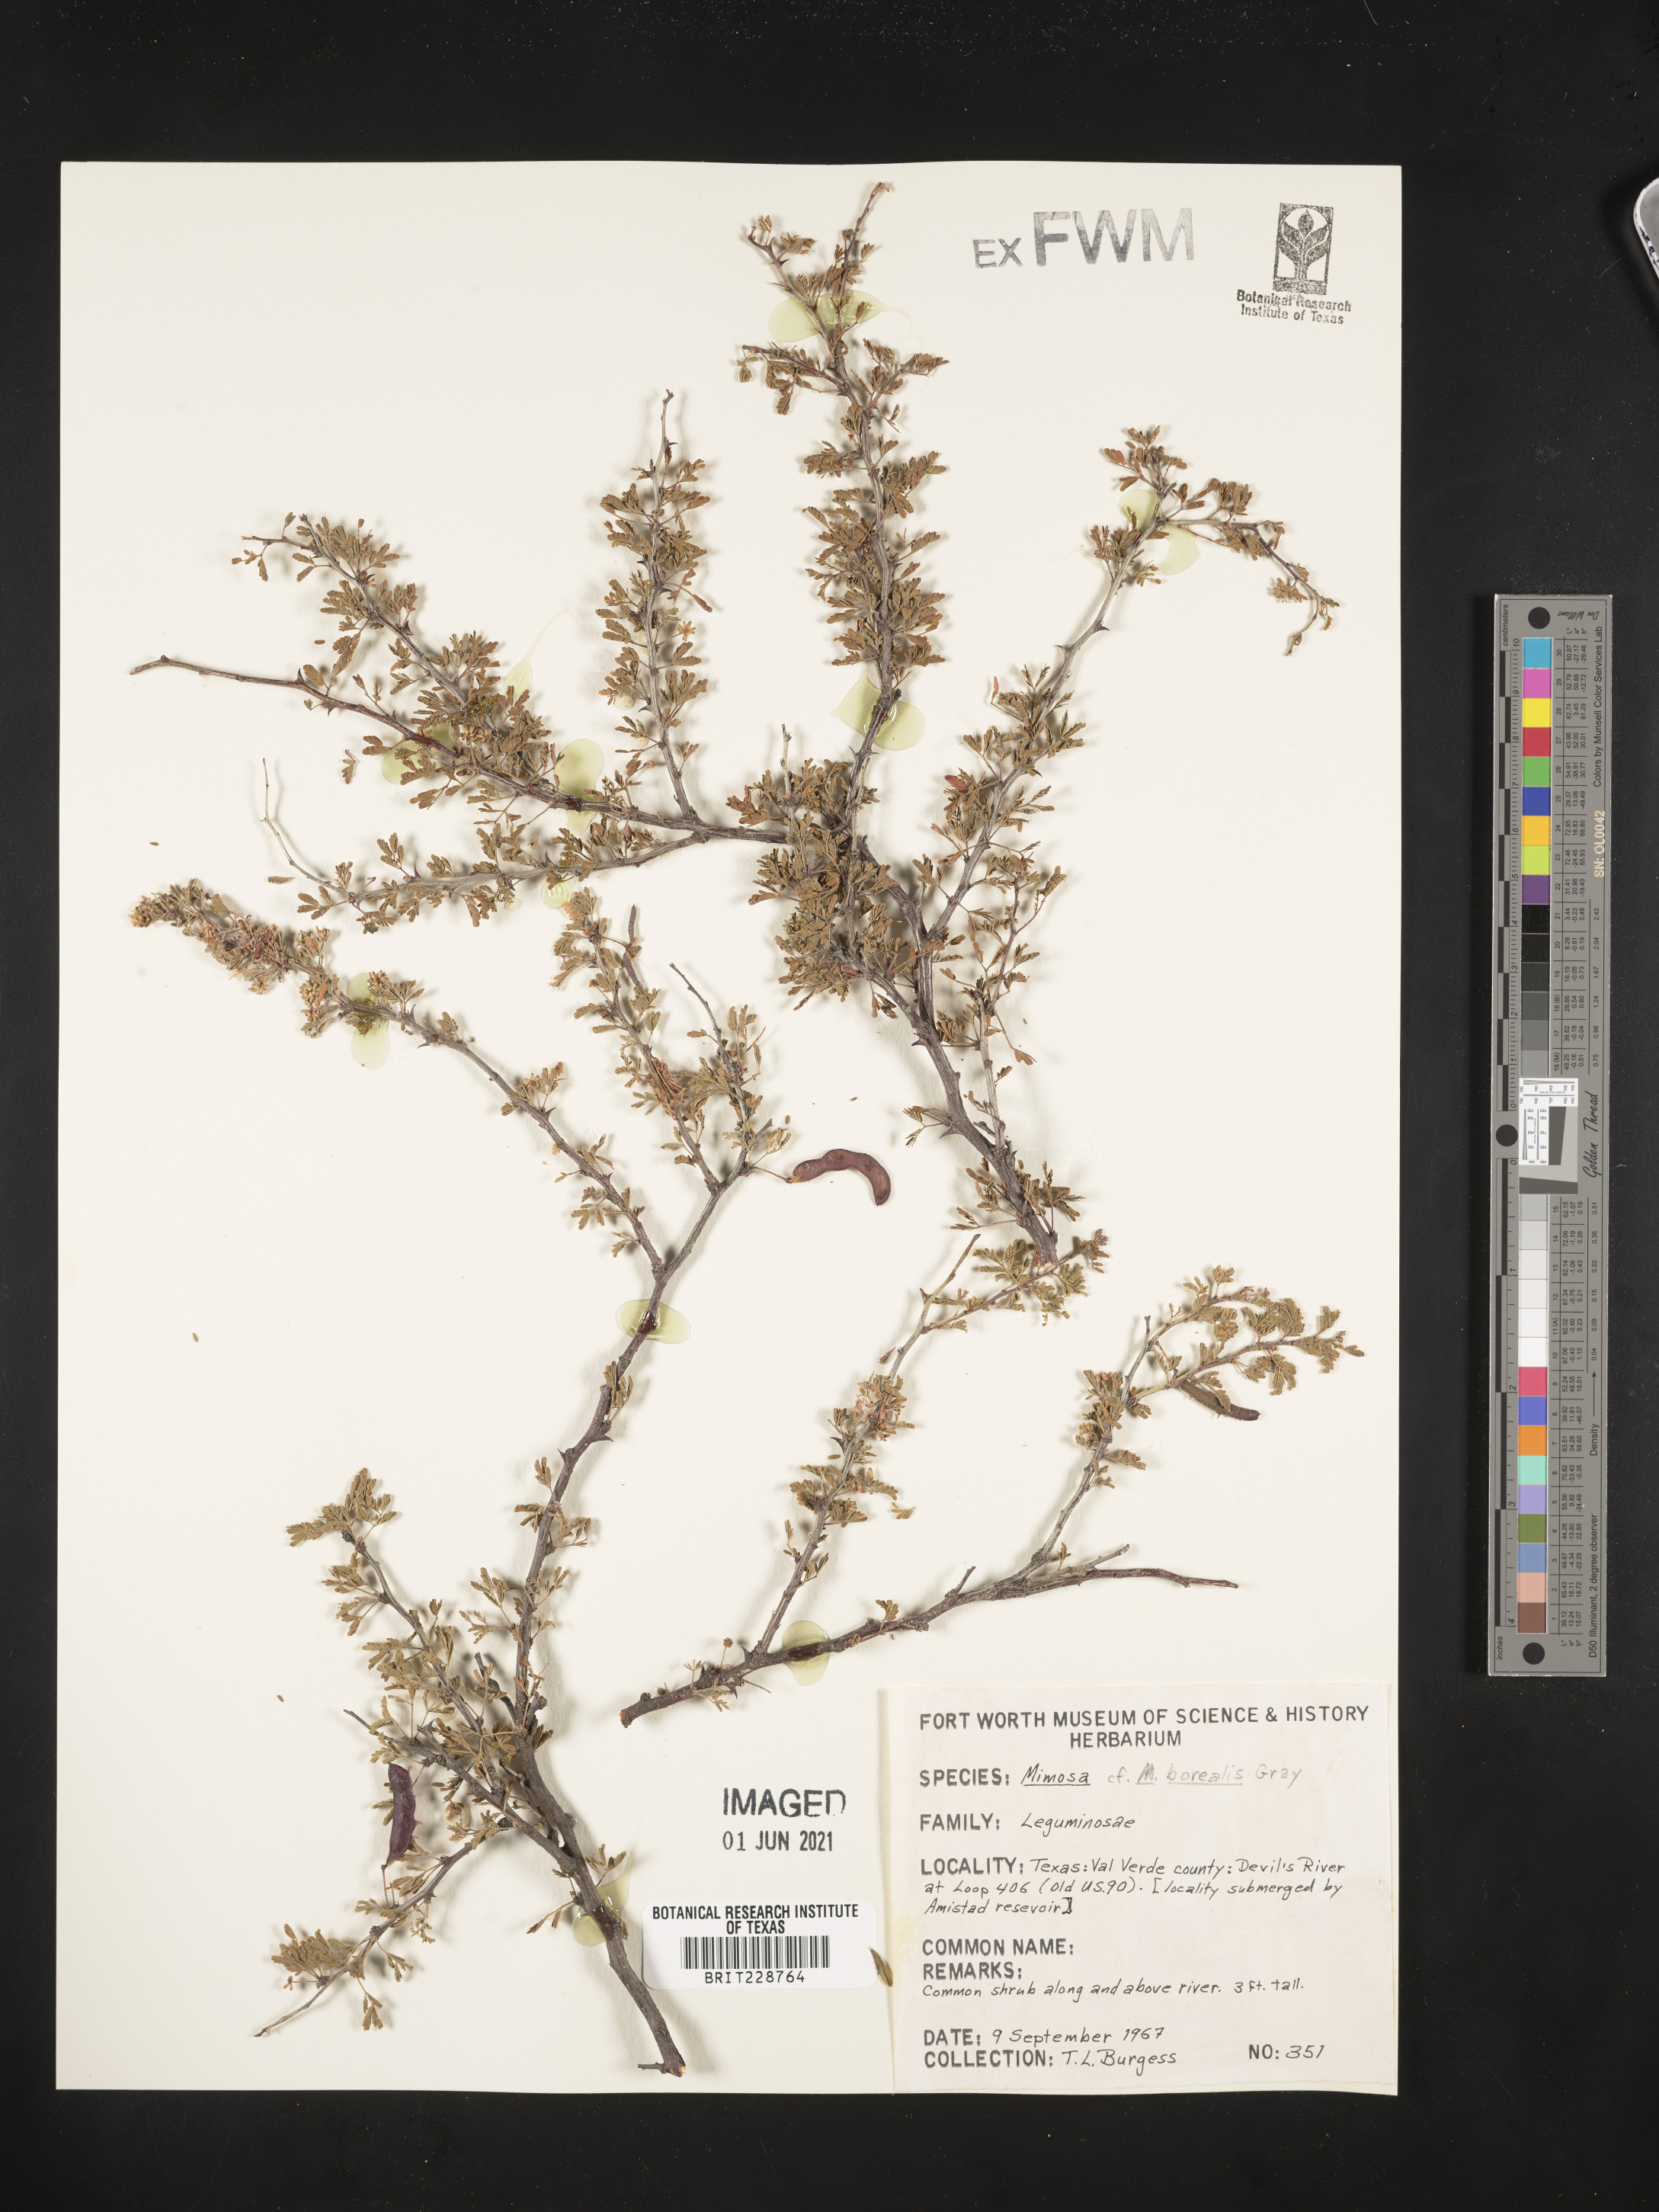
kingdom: Plantae
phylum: Tracheophyta
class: Magnoliopsida
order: Fabales
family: Fabaceae
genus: Mimosa
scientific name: Mimosa
